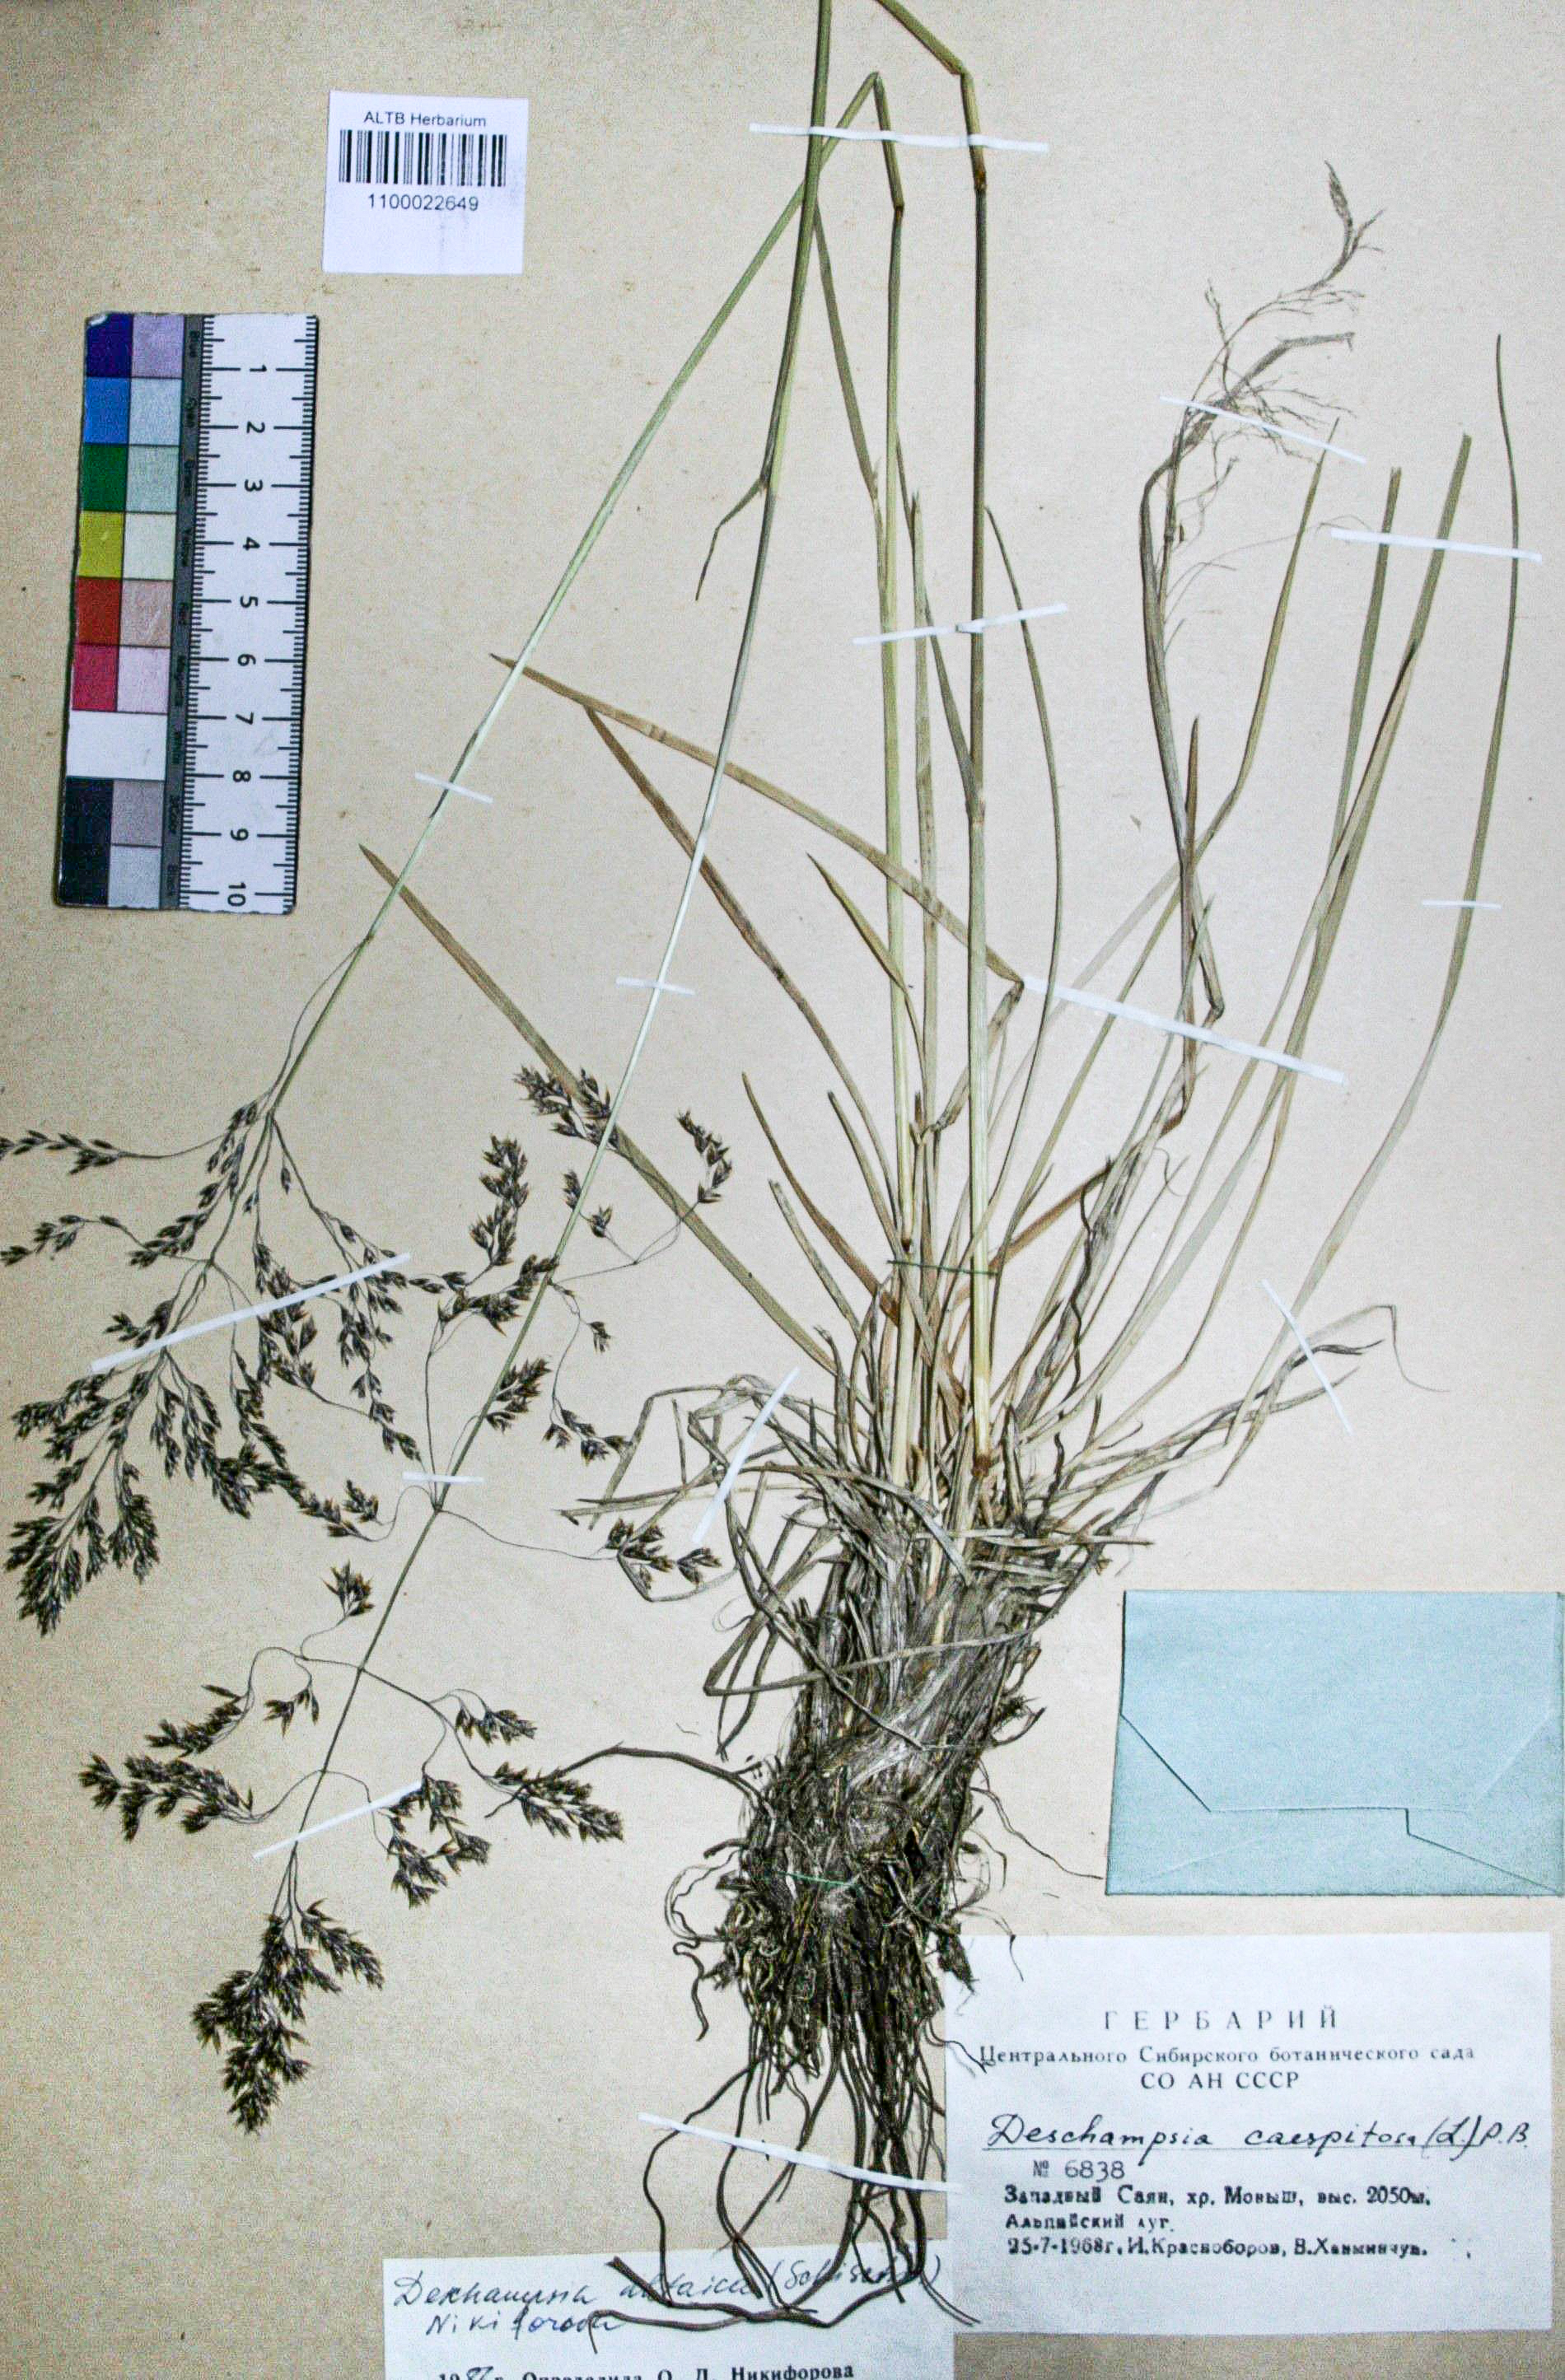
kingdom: Plantae
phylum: Tracheophyta
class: Liliopsida
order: Poales
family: Poaceae
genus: Deschampsia
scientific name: Deschampsia cespitosa
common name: Tufted hair-grass
